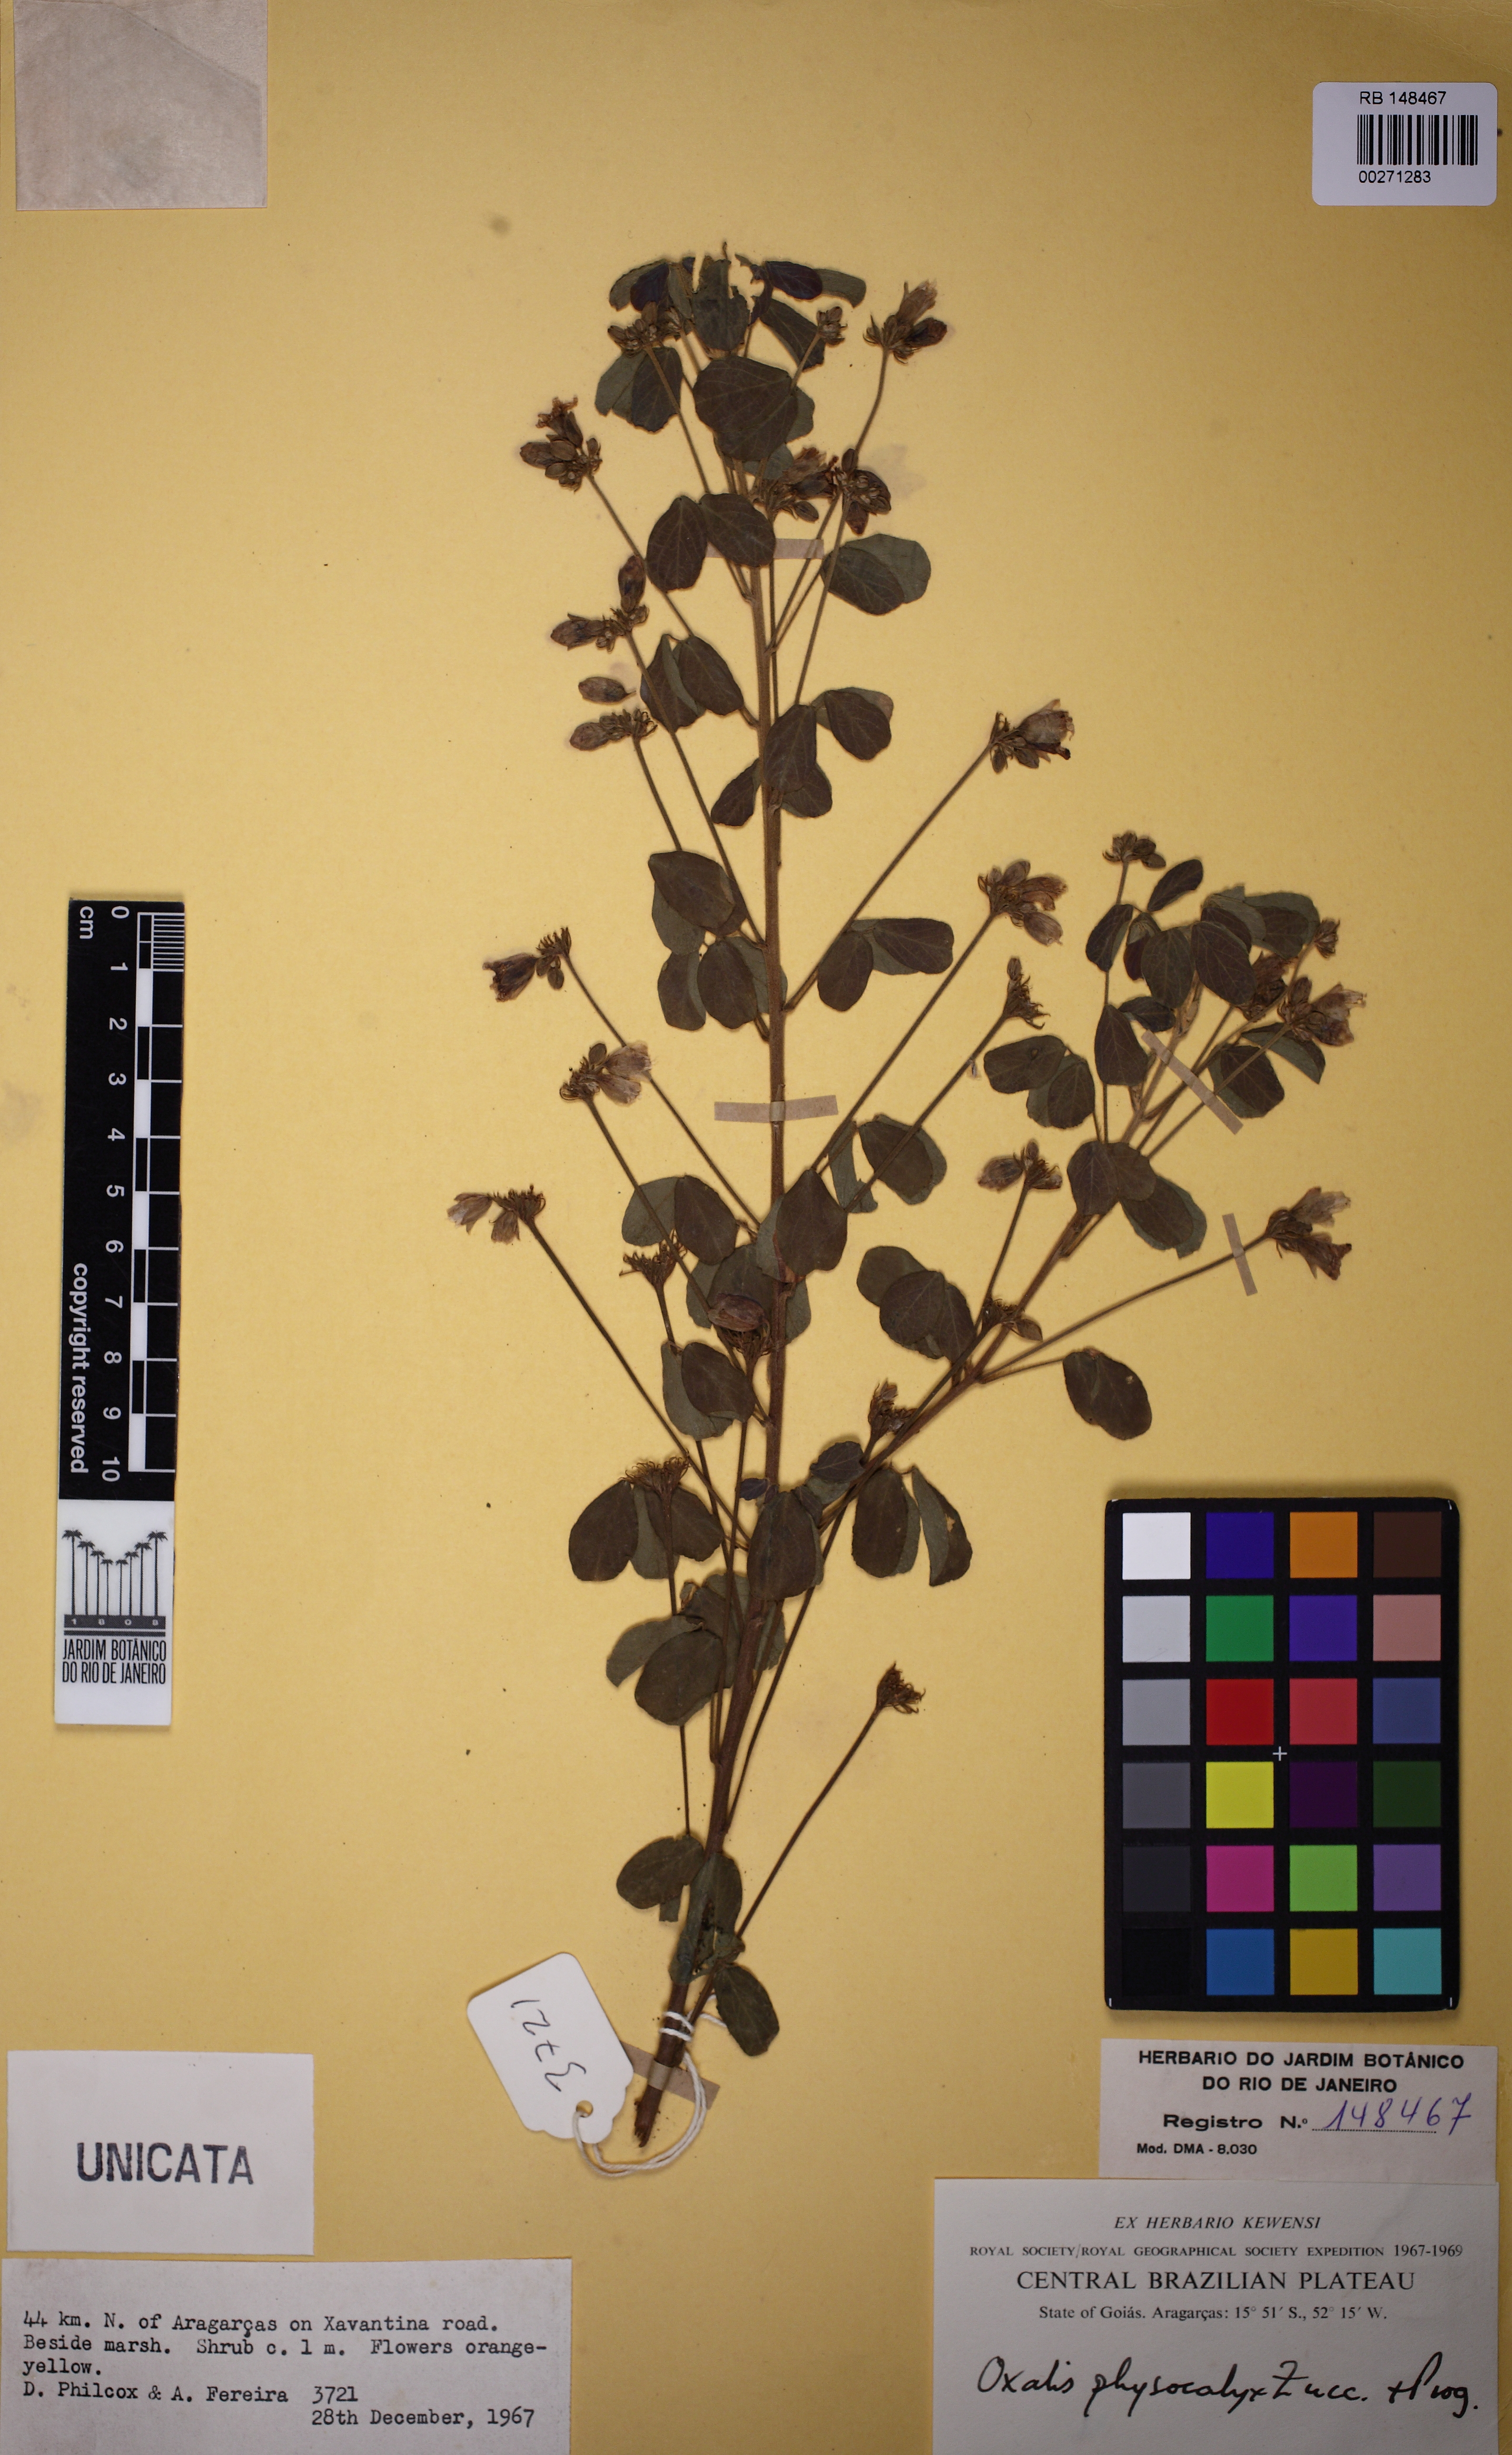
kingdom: Plantae
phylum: Tracheophyta
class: Magnoliopsida
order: Oxalidales
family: Oxalidaceae
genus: Oxalis
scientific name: Oxalis physocalyx
